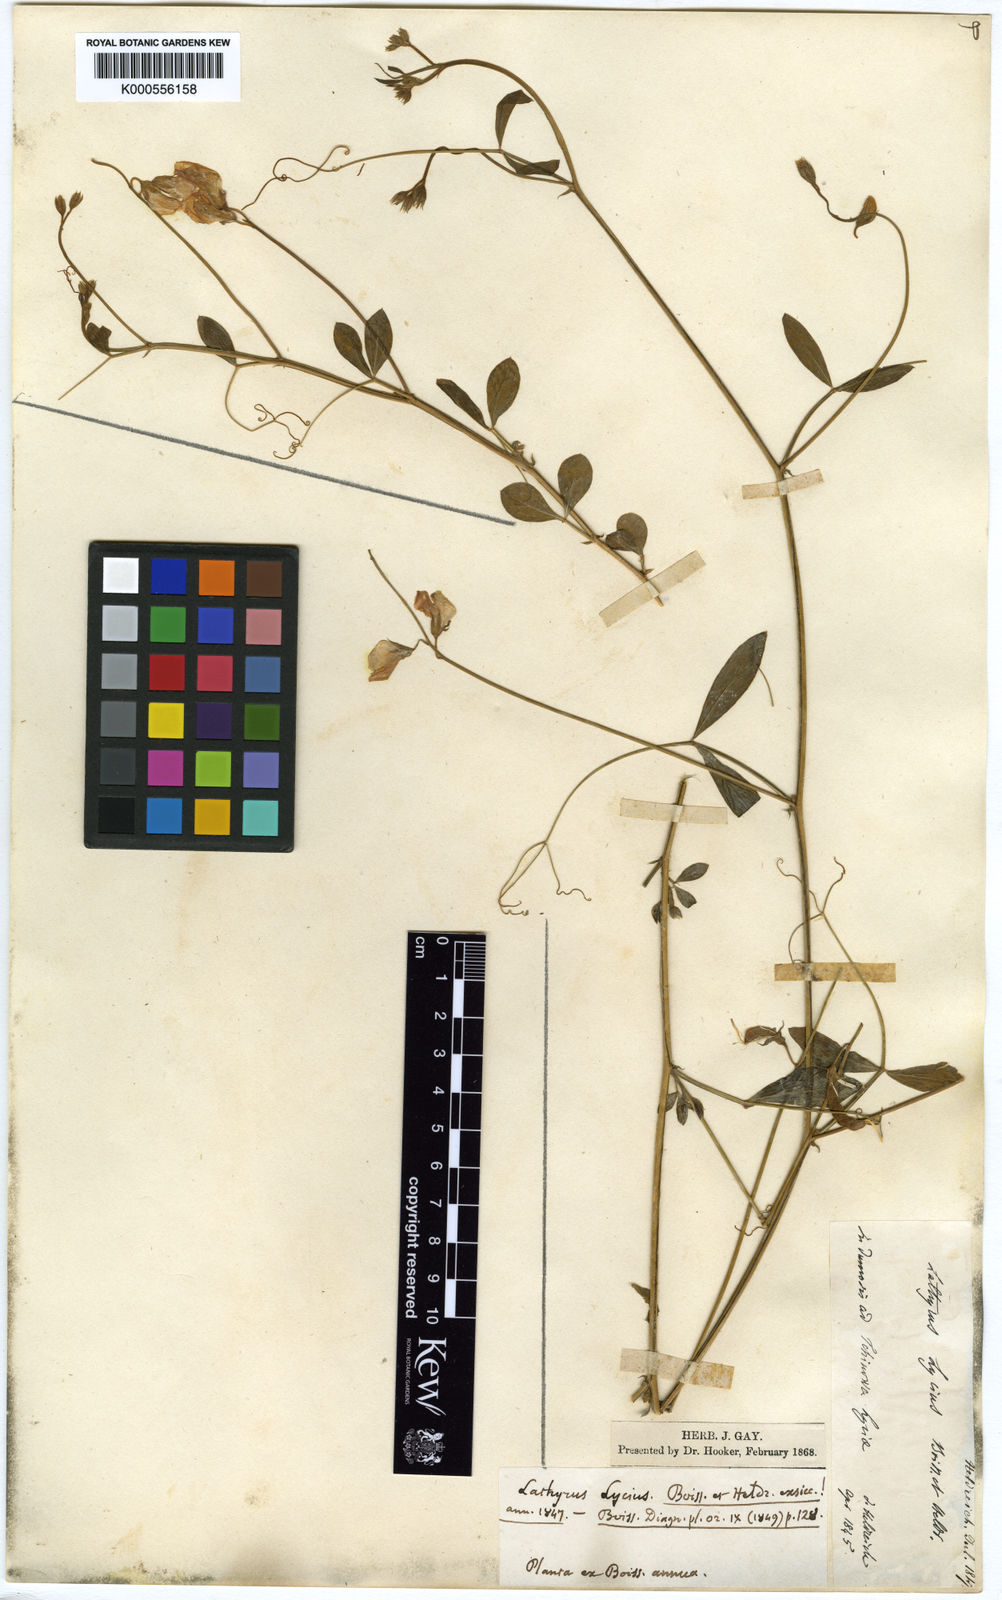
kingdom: Plantae
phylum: Tracheophyta
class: Magnoliopsida
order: Fabales
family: Fabaceae
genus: Lathyrus
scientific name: Lathyrus
